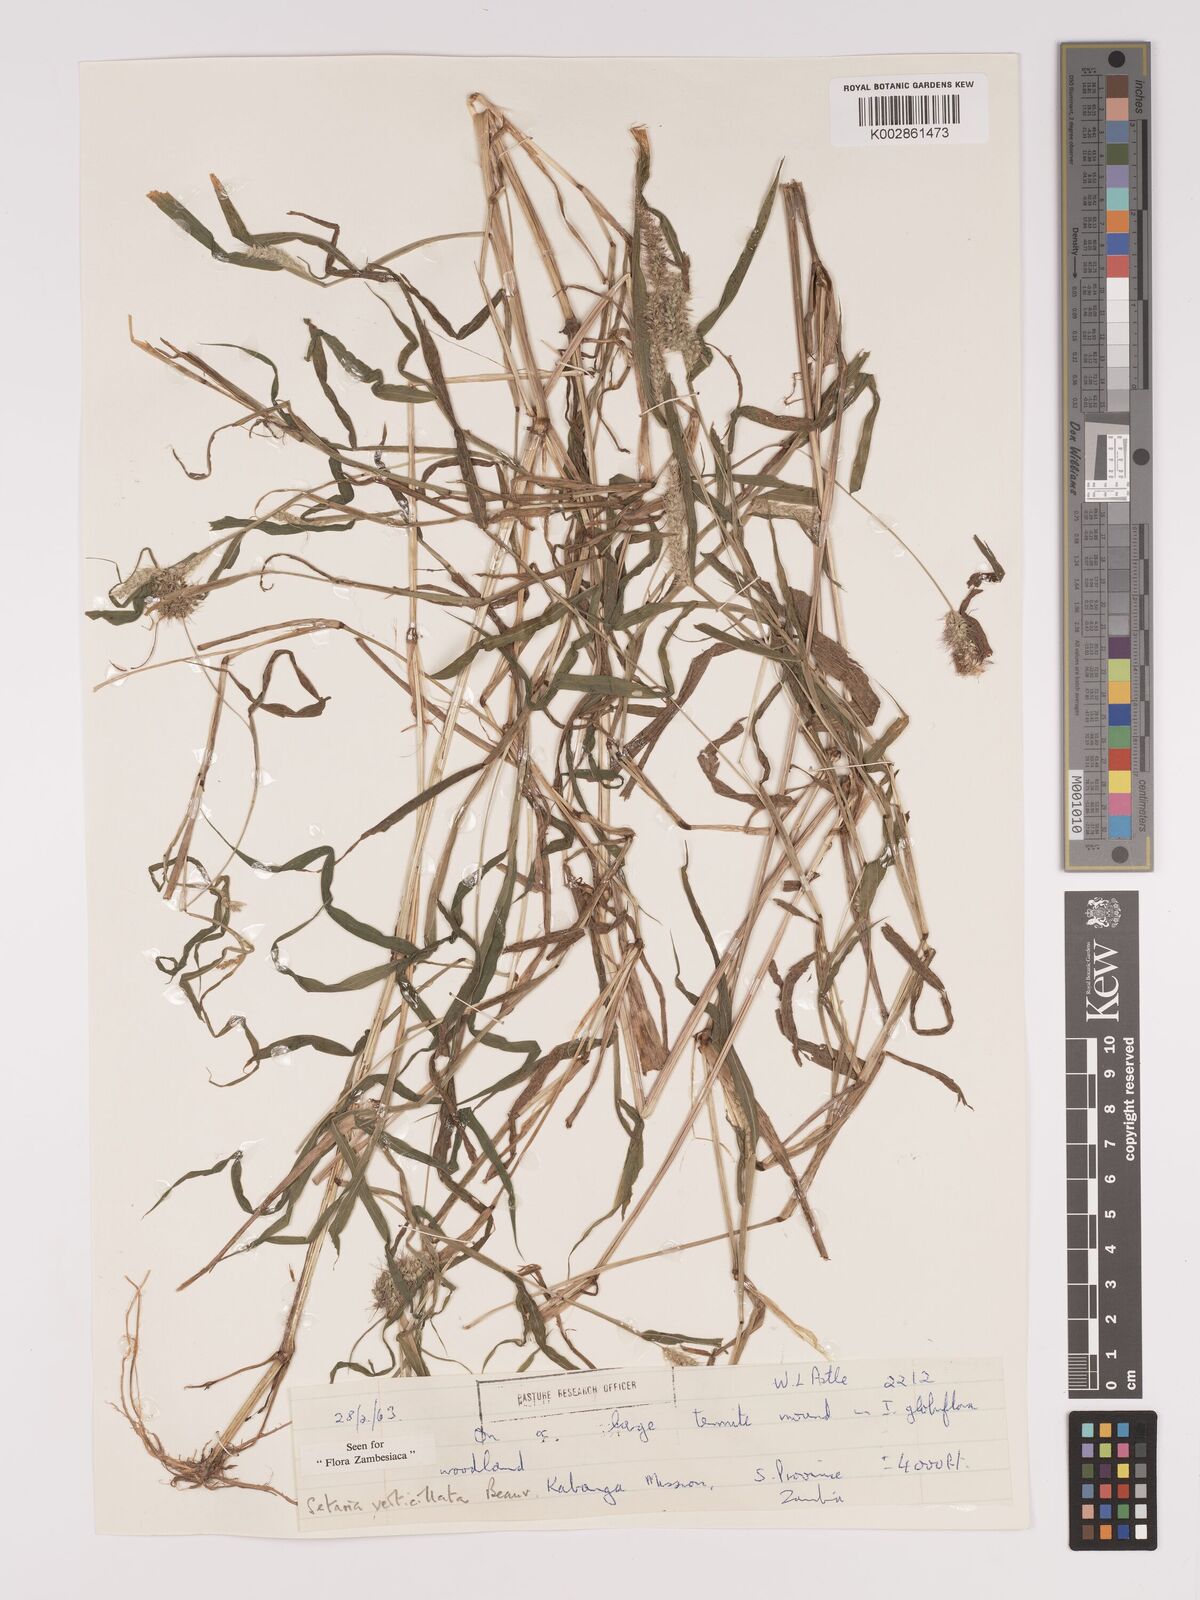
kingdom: Plantae
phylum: Tracheophyta
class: Liliopsida
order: Poales
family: Poaceae
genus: Setaria
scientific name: Setaria verticillata
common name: Hooked bristlegrass
